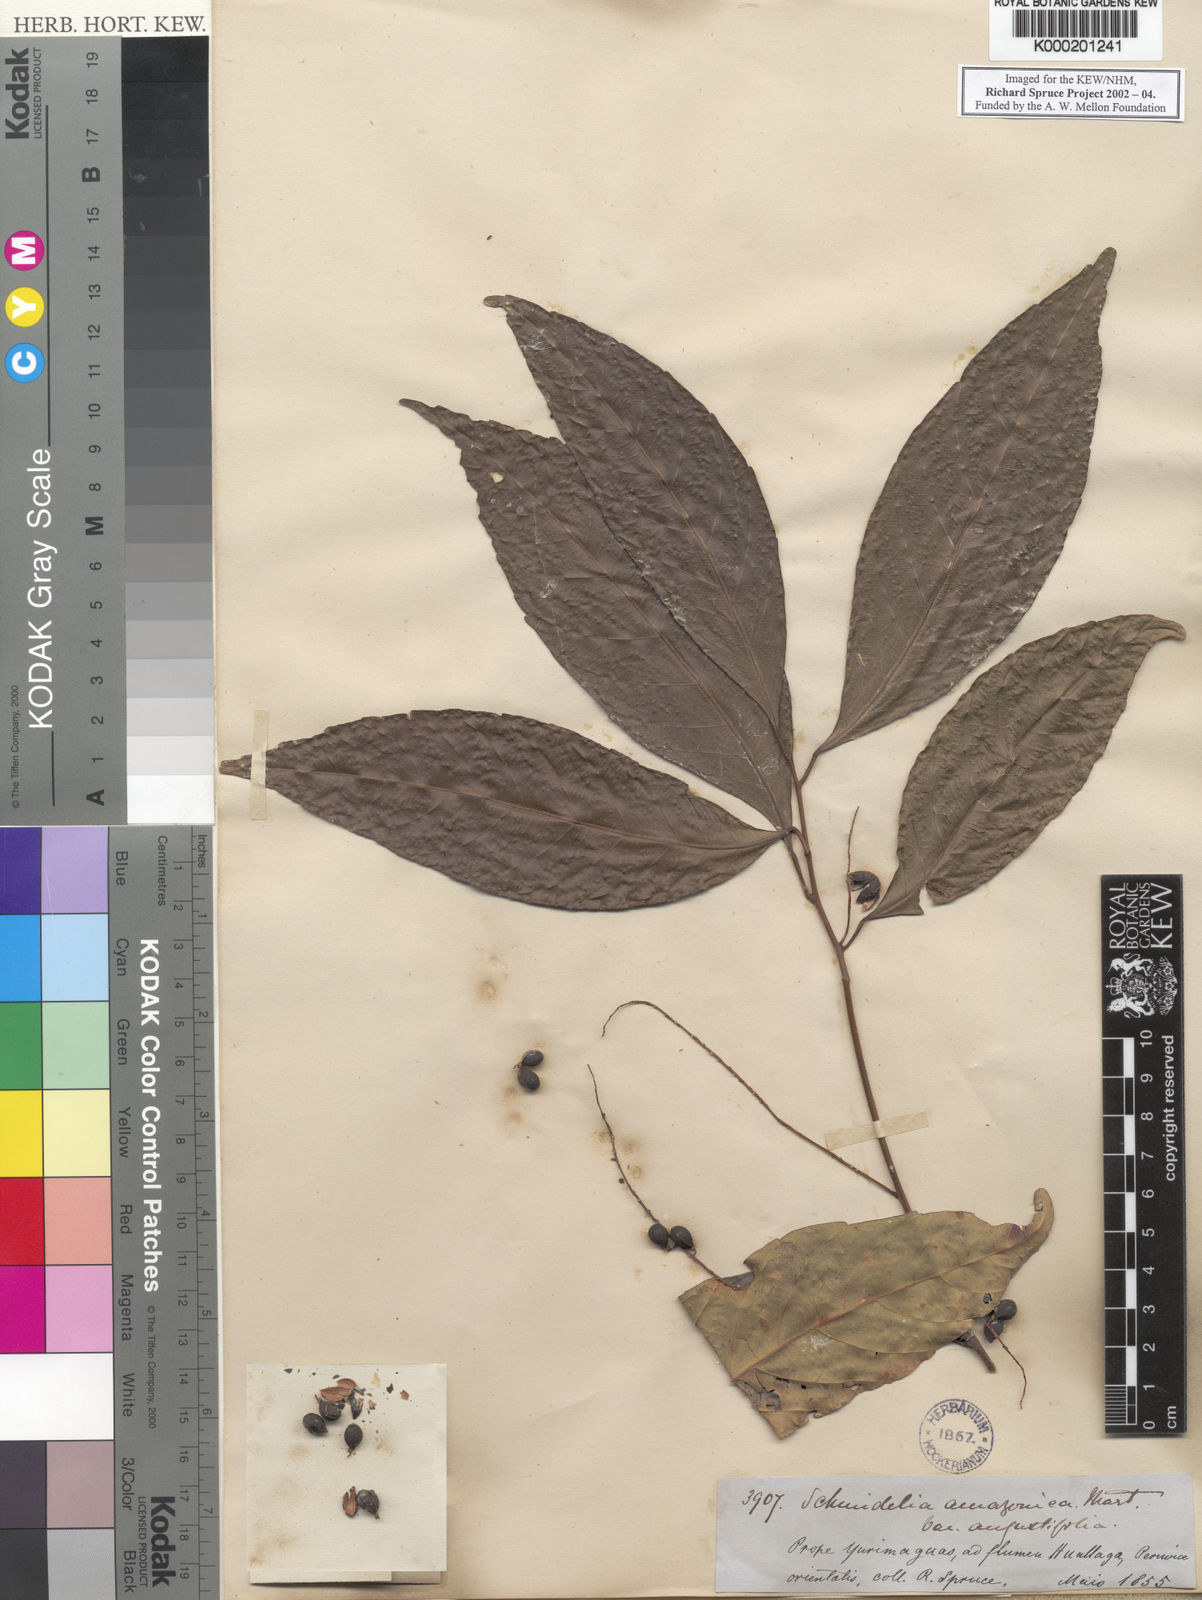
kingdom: Plantae
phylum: Tracheophyta
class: Magnoliopsida
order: Sapindales
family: Sapindaceae
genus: Allophylus
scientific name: Allophylus amazonicus
